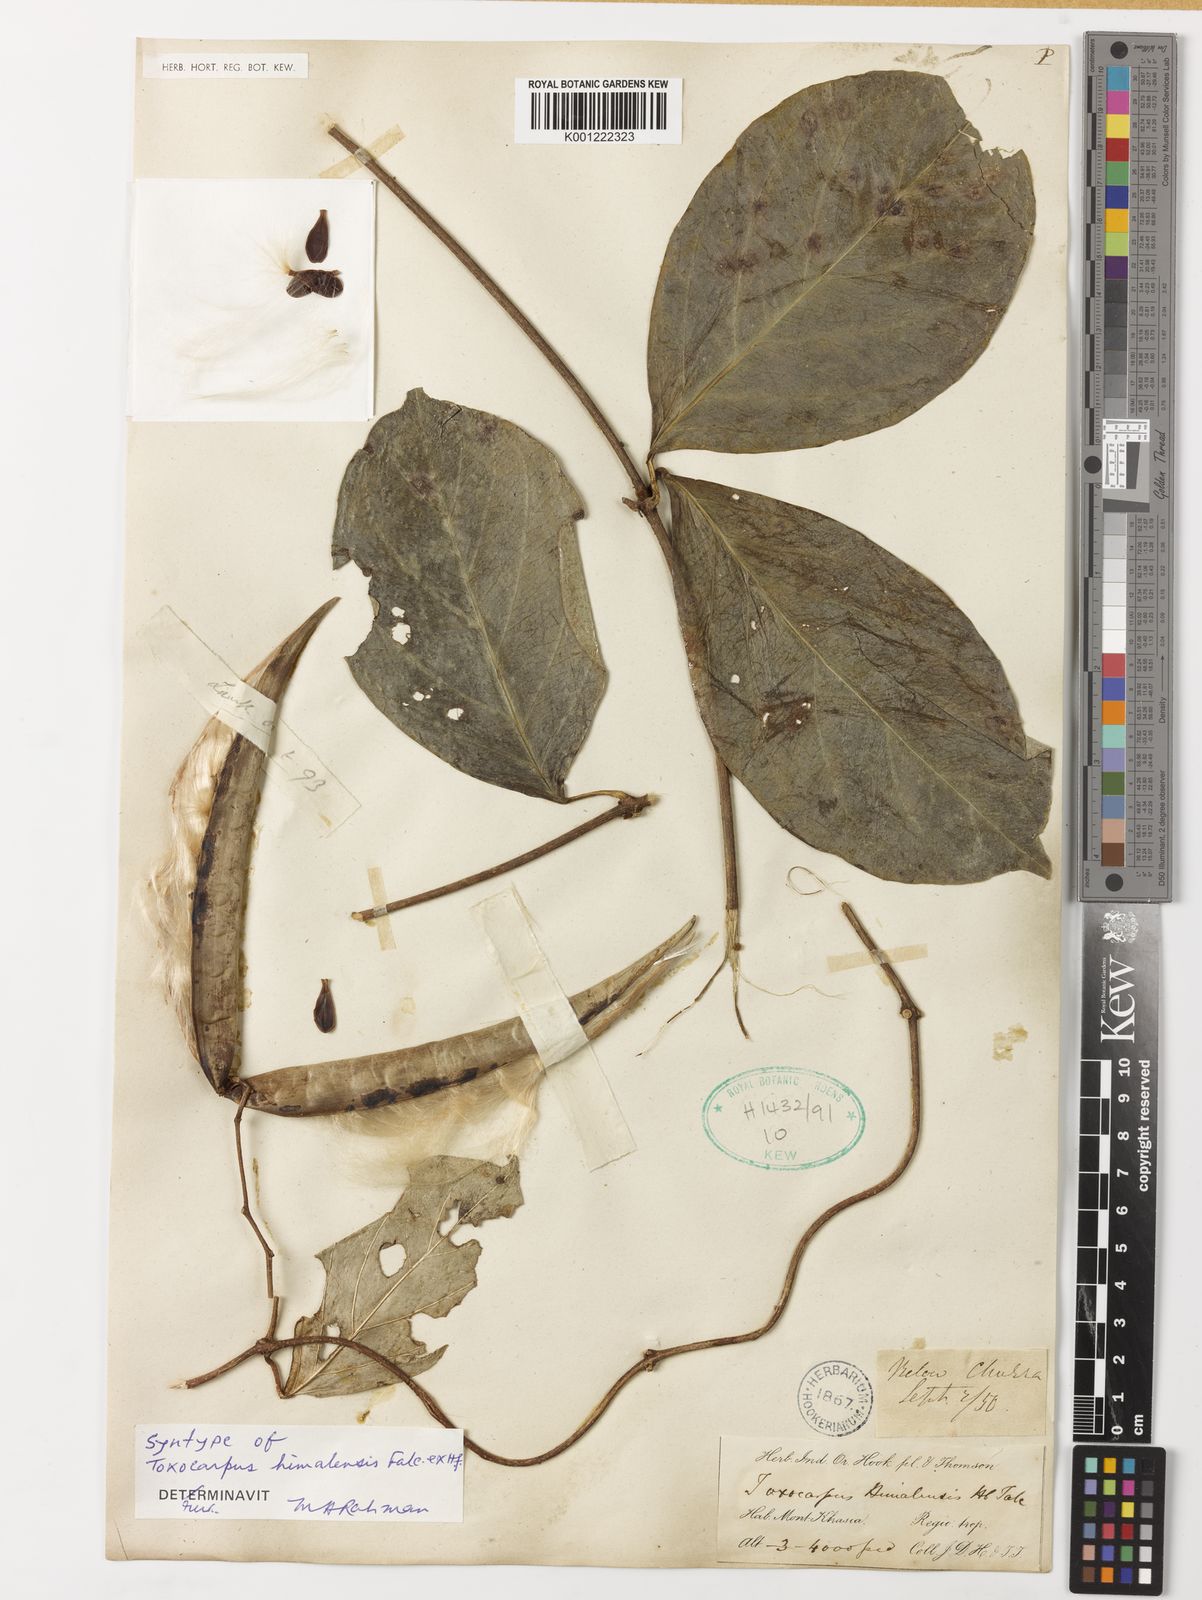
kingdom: Plantae
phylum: Tracheophyta
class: Magnoliopsida
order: Gentianales
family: Apocynaceae
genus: Toxocarpus
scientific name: Toxocarpus himalensis
